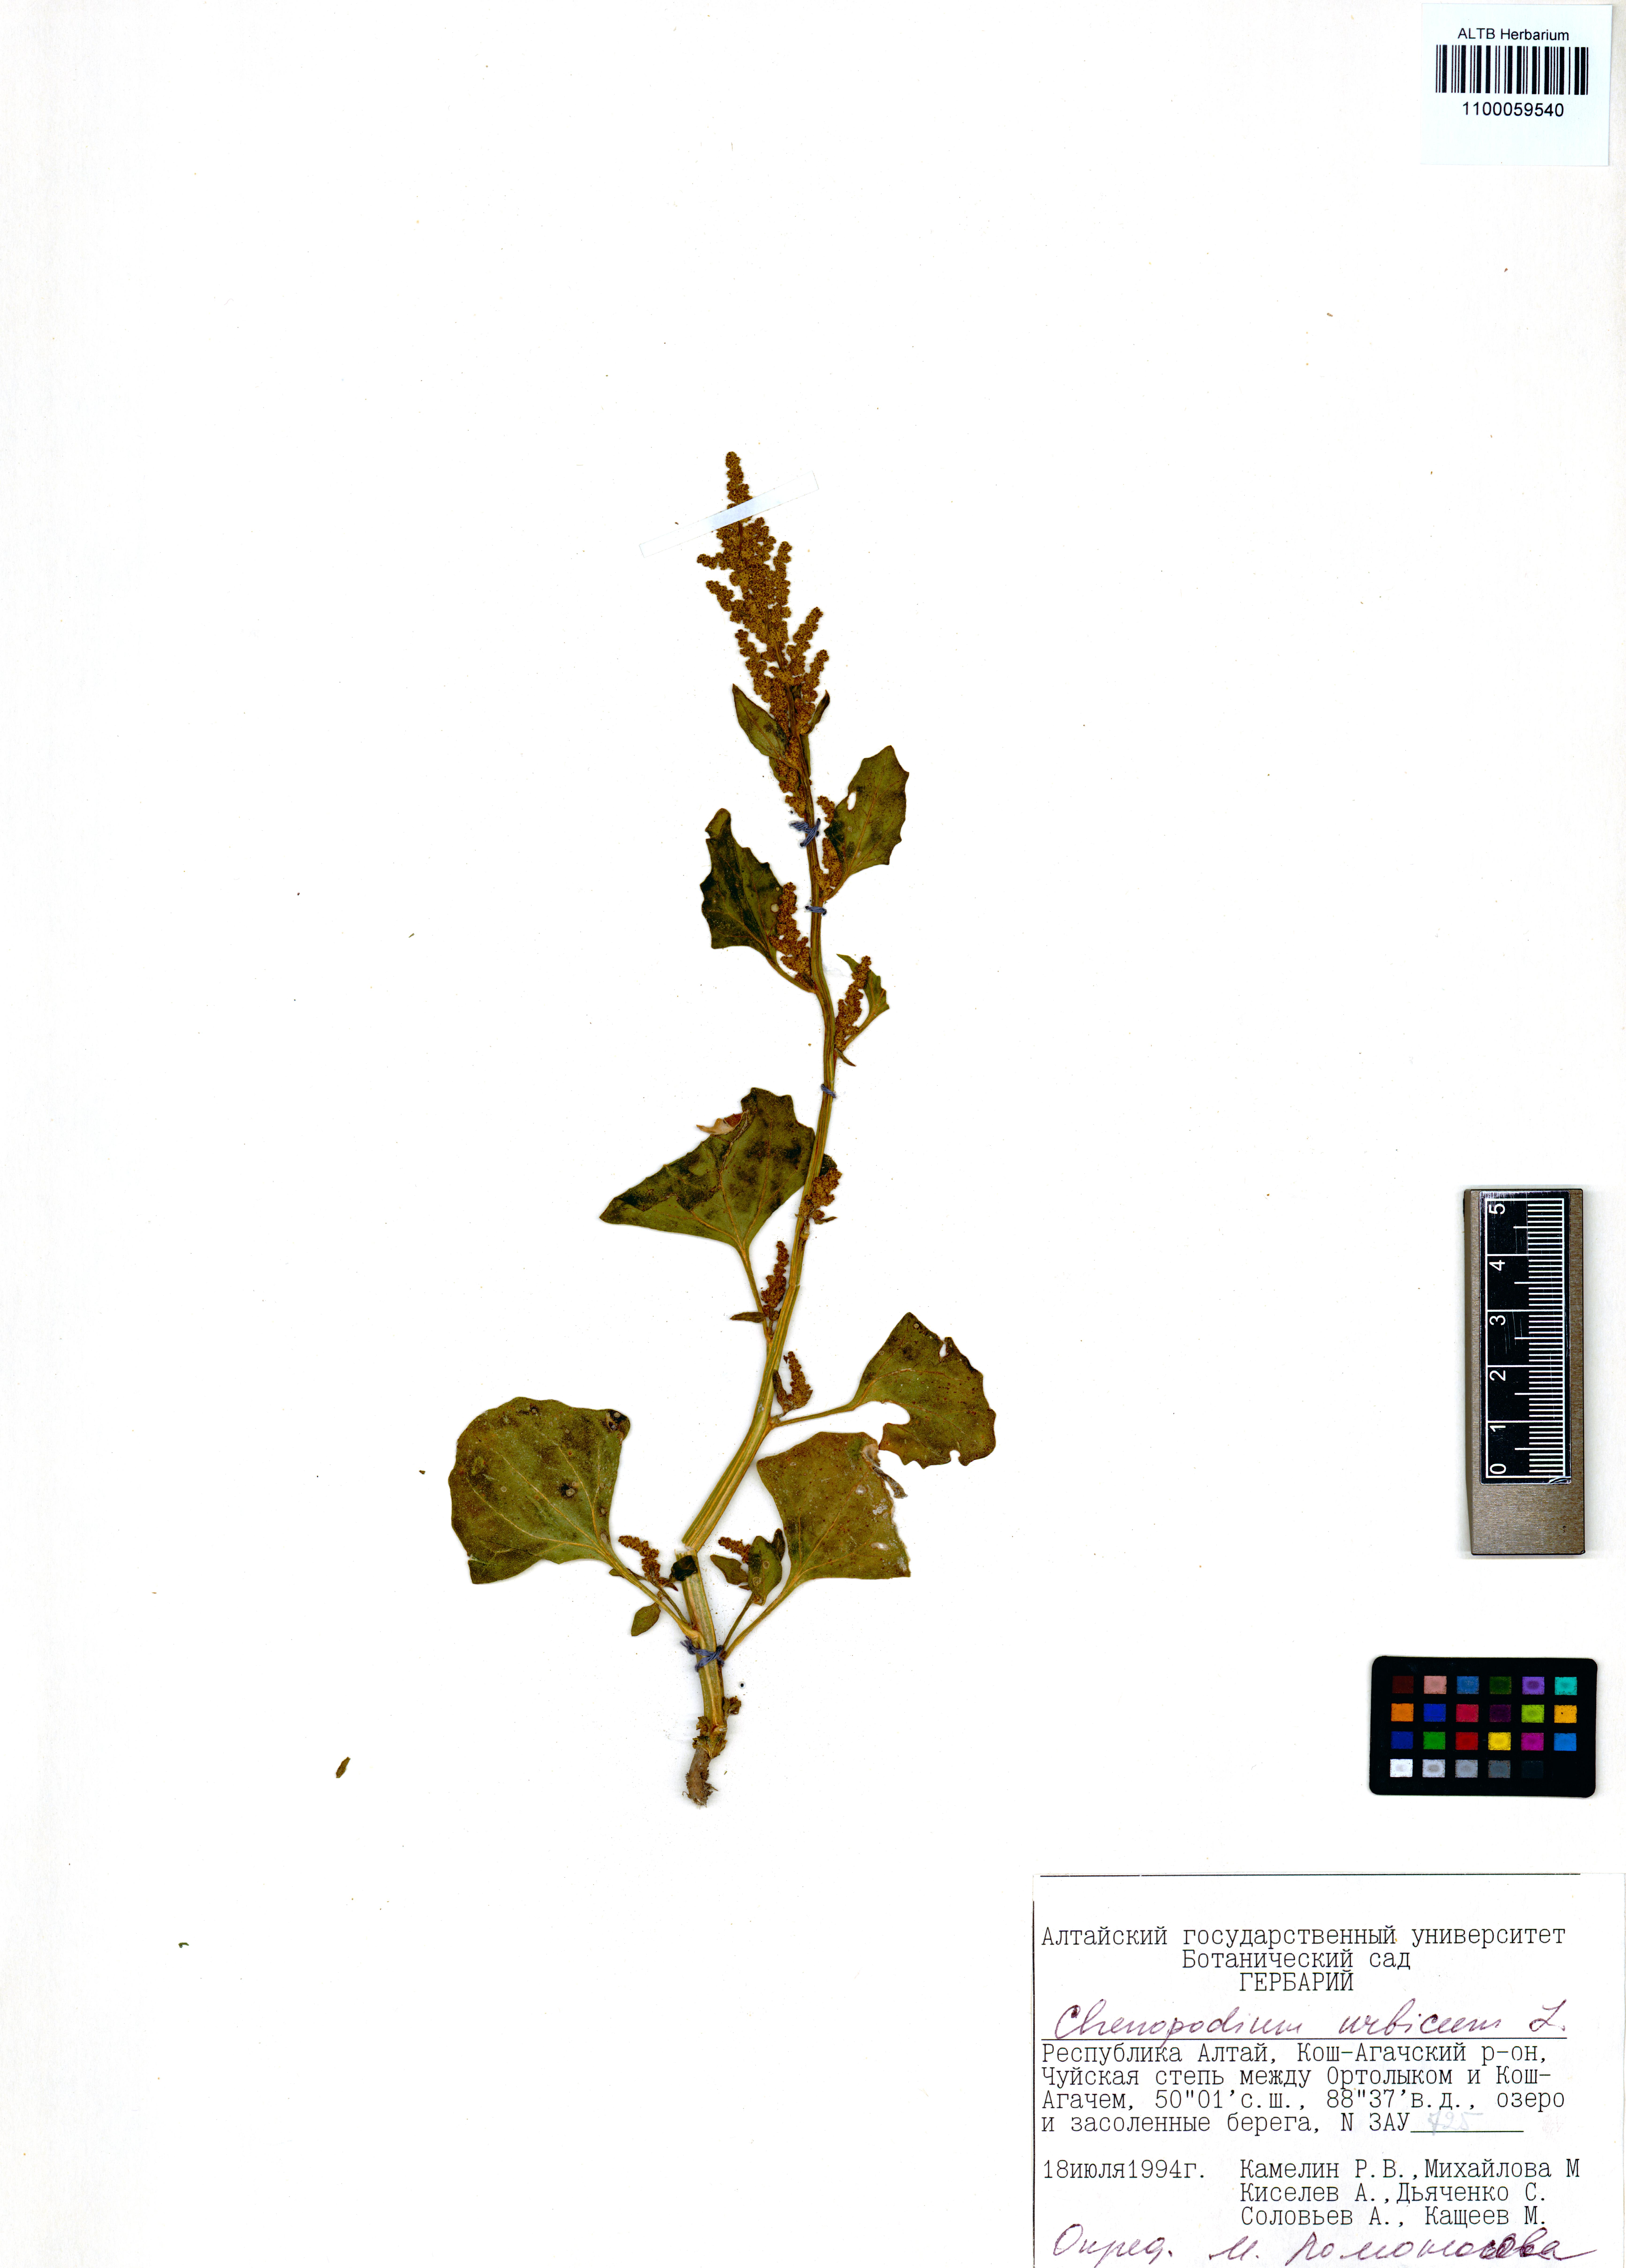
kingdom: Plantae
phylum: Tracheophyta
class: Magnoliopsida
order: Caryophyllales
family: Amaranthaceae
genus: Oxybasis
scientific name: Oxybasis urbica
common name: City goosefoot
